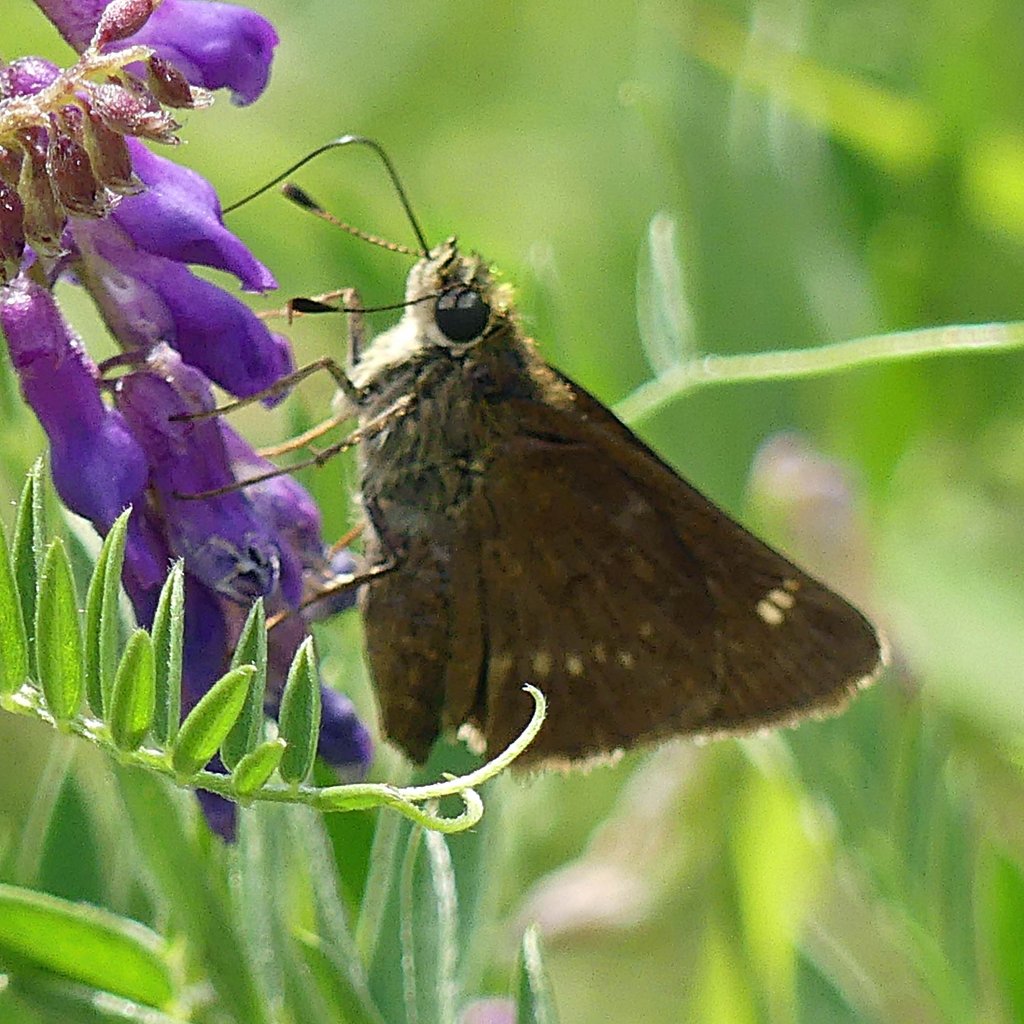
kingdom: Animalia
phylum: Arthropoda
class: Insecta
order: Lepidoptera
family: Hesperiidae
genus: Vernia
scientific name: Vernia verna
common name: Little Glassywing
